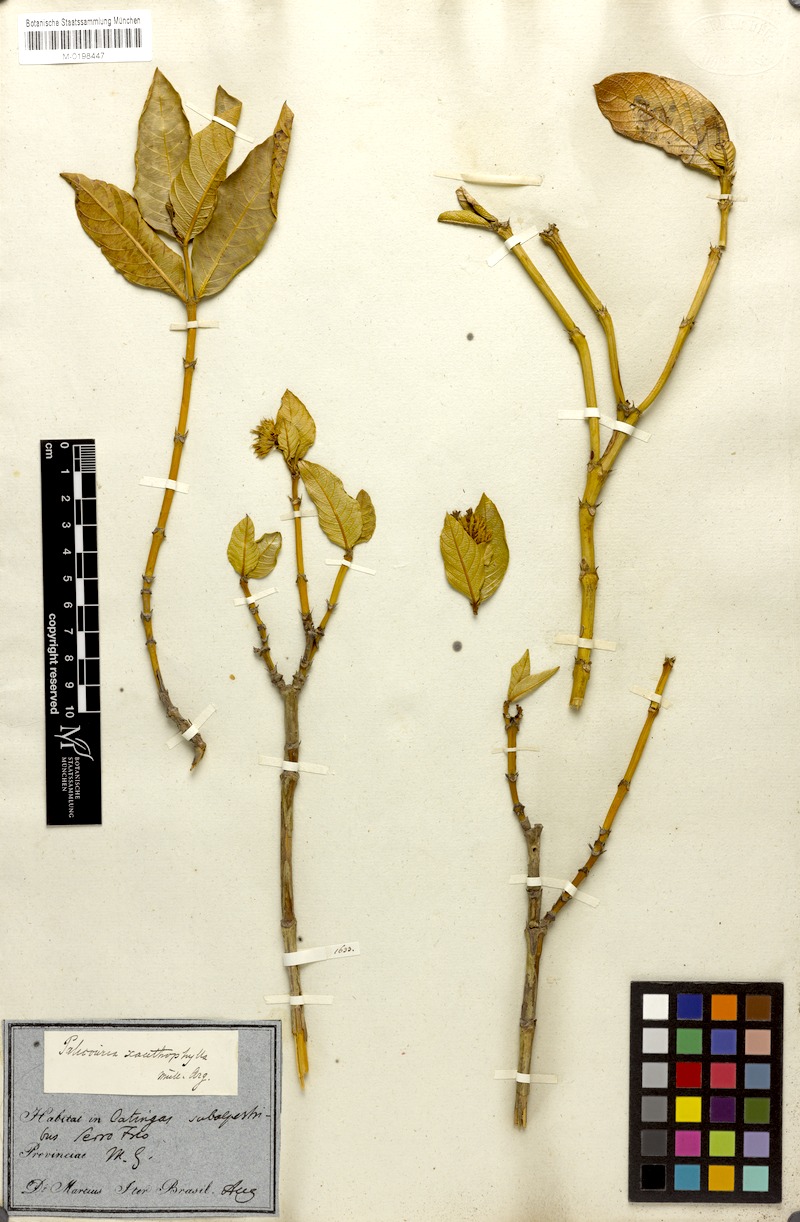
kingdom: Plantae
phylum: Tracheophyta
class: Magnoliopsida
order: Gentianales
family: Rubiaceae
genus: Palicourea
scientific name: Palicourea coriacea
